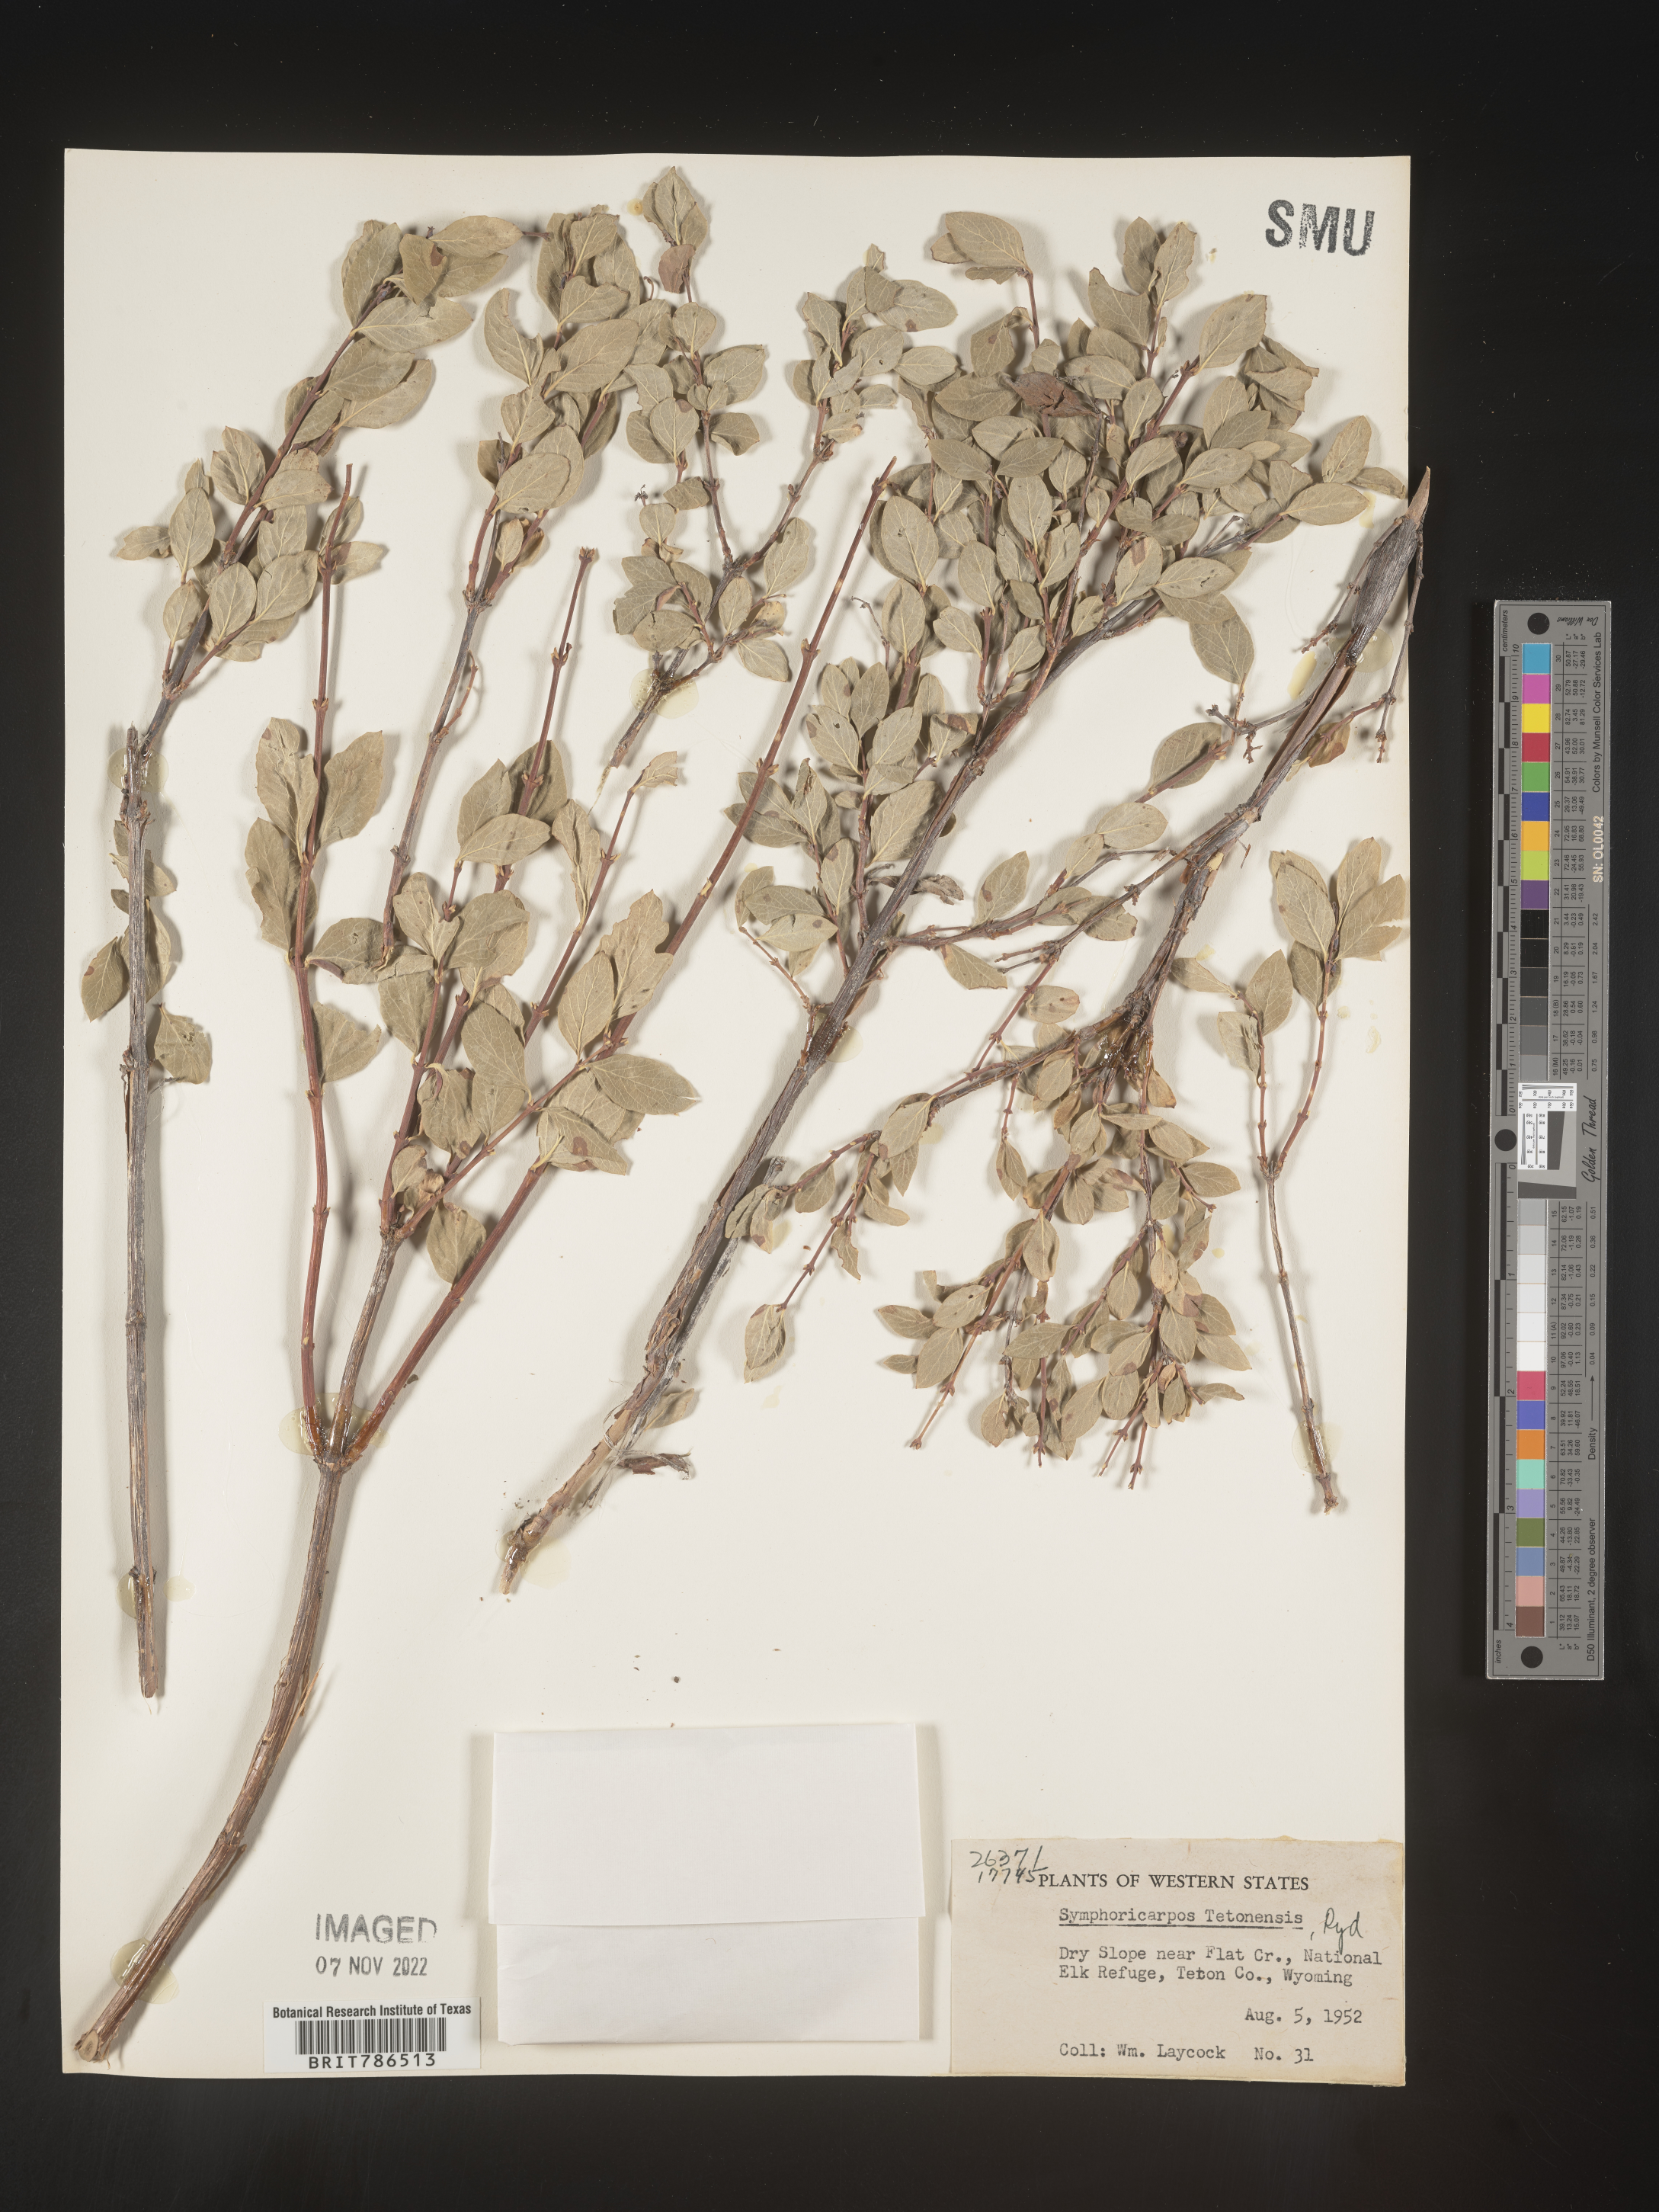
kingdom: Plantae
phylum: Tracheophyta
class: Magnoliopsida
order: Dipsacales
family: Caprifoliaceae
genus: Symphoricarpos
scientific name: Symphoricarpos
